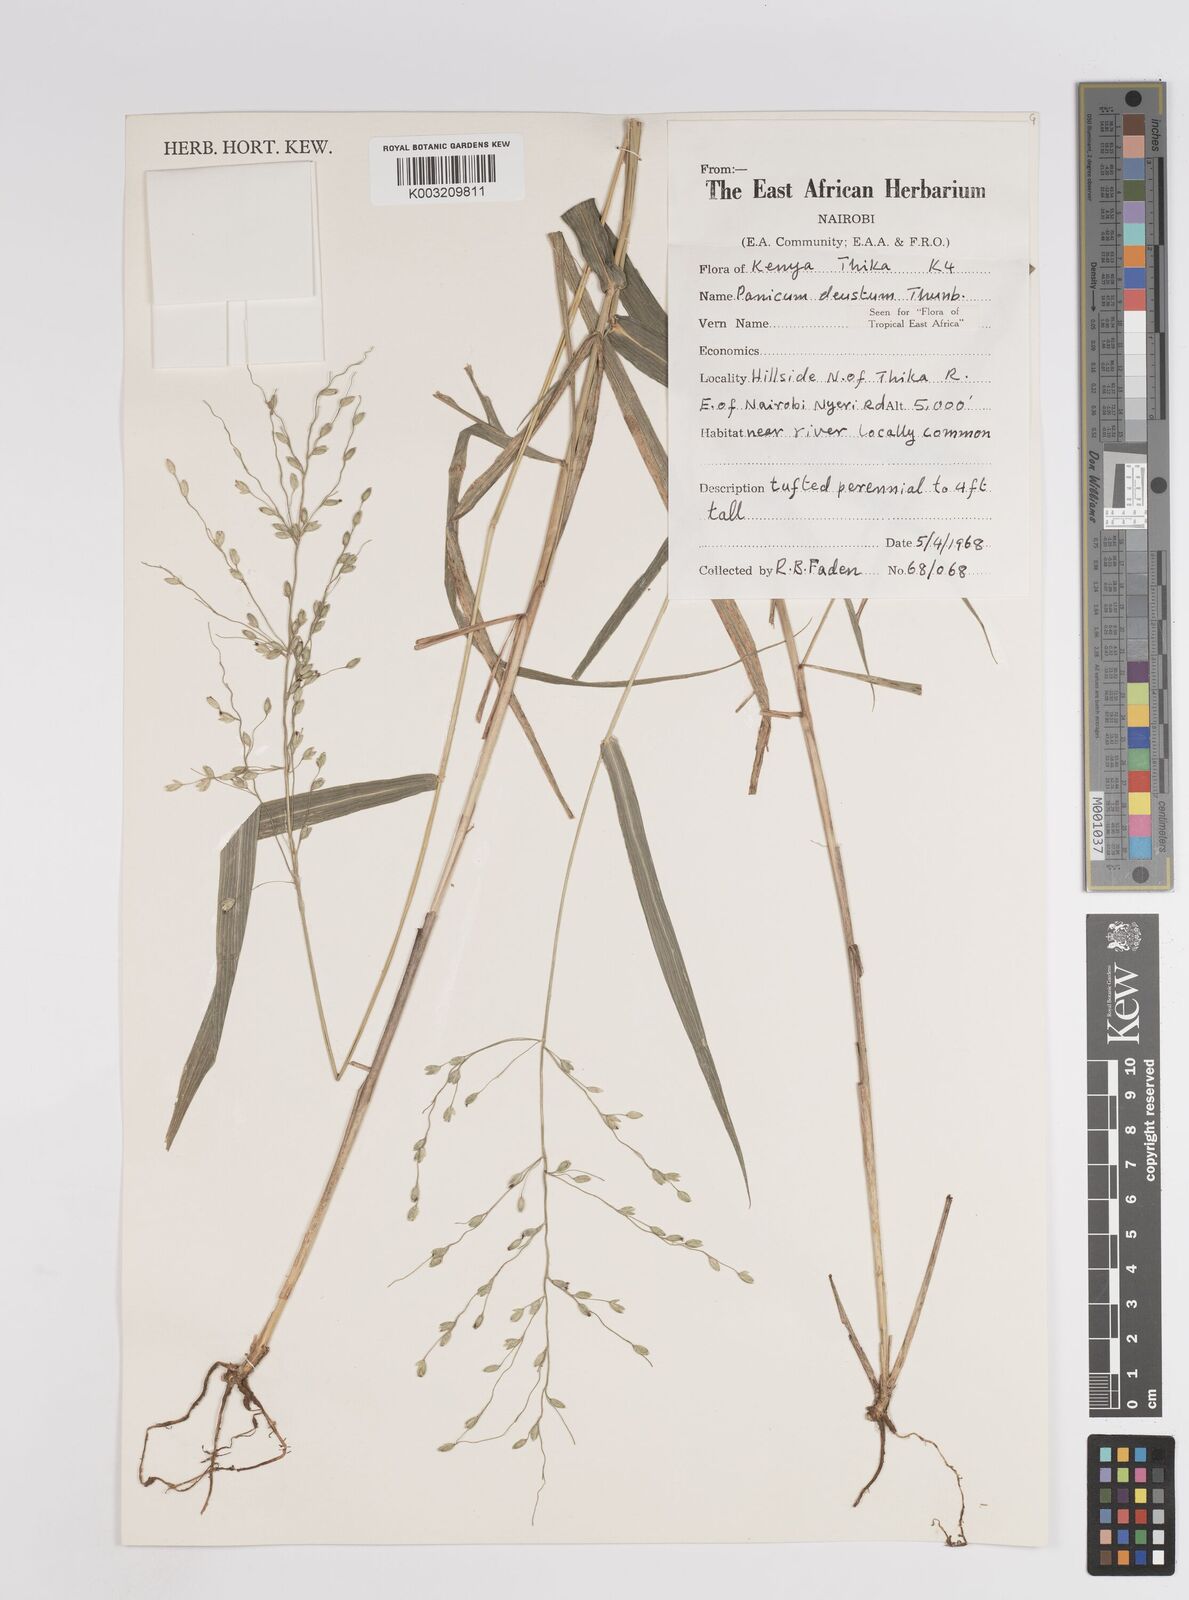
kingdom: Plantae
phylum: Tracheophyta
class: Liliopsida
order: Poales
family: Poaceae
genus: Panicum
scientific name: Panicum deustum
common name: Reed panicum
